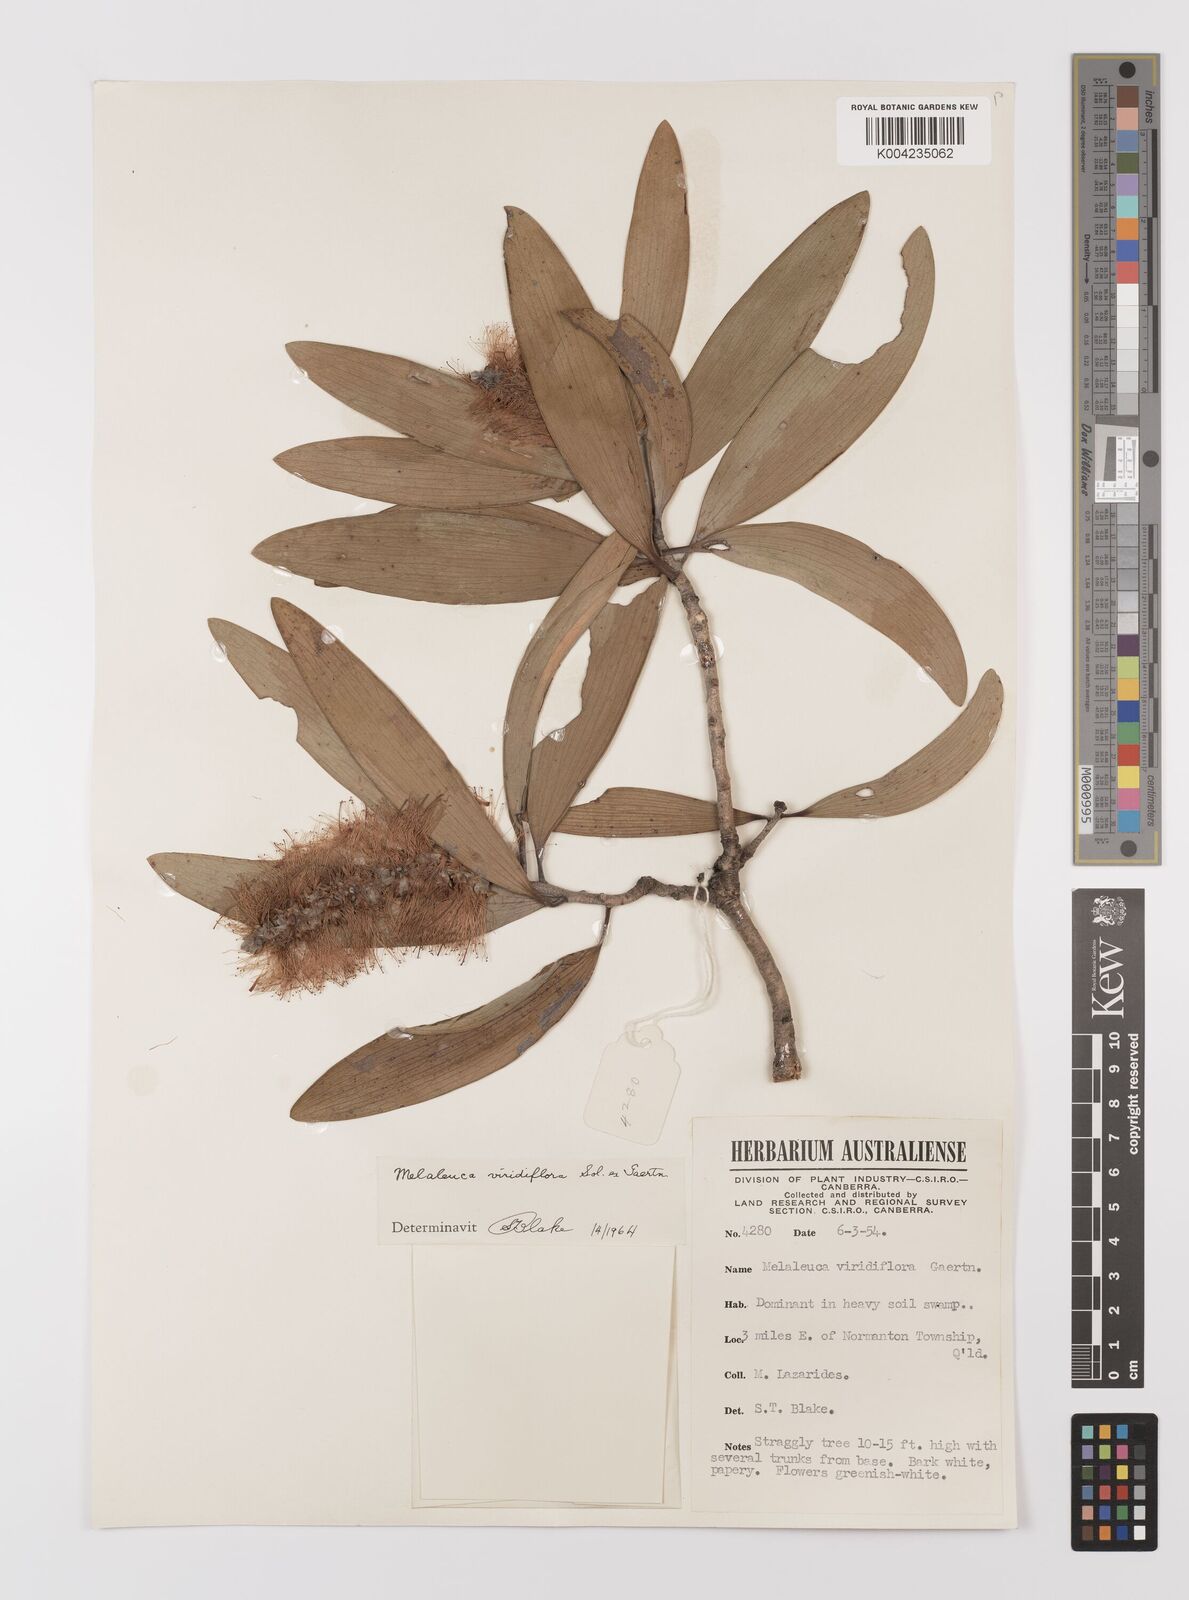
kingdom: Plantae
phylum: Tracheophyta
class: Magnoliopsida
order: Myrtales
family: Myrtaceae
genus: Melaleuca
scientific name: Melaleuca viridiflora
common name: Brown-leaved paperbark
